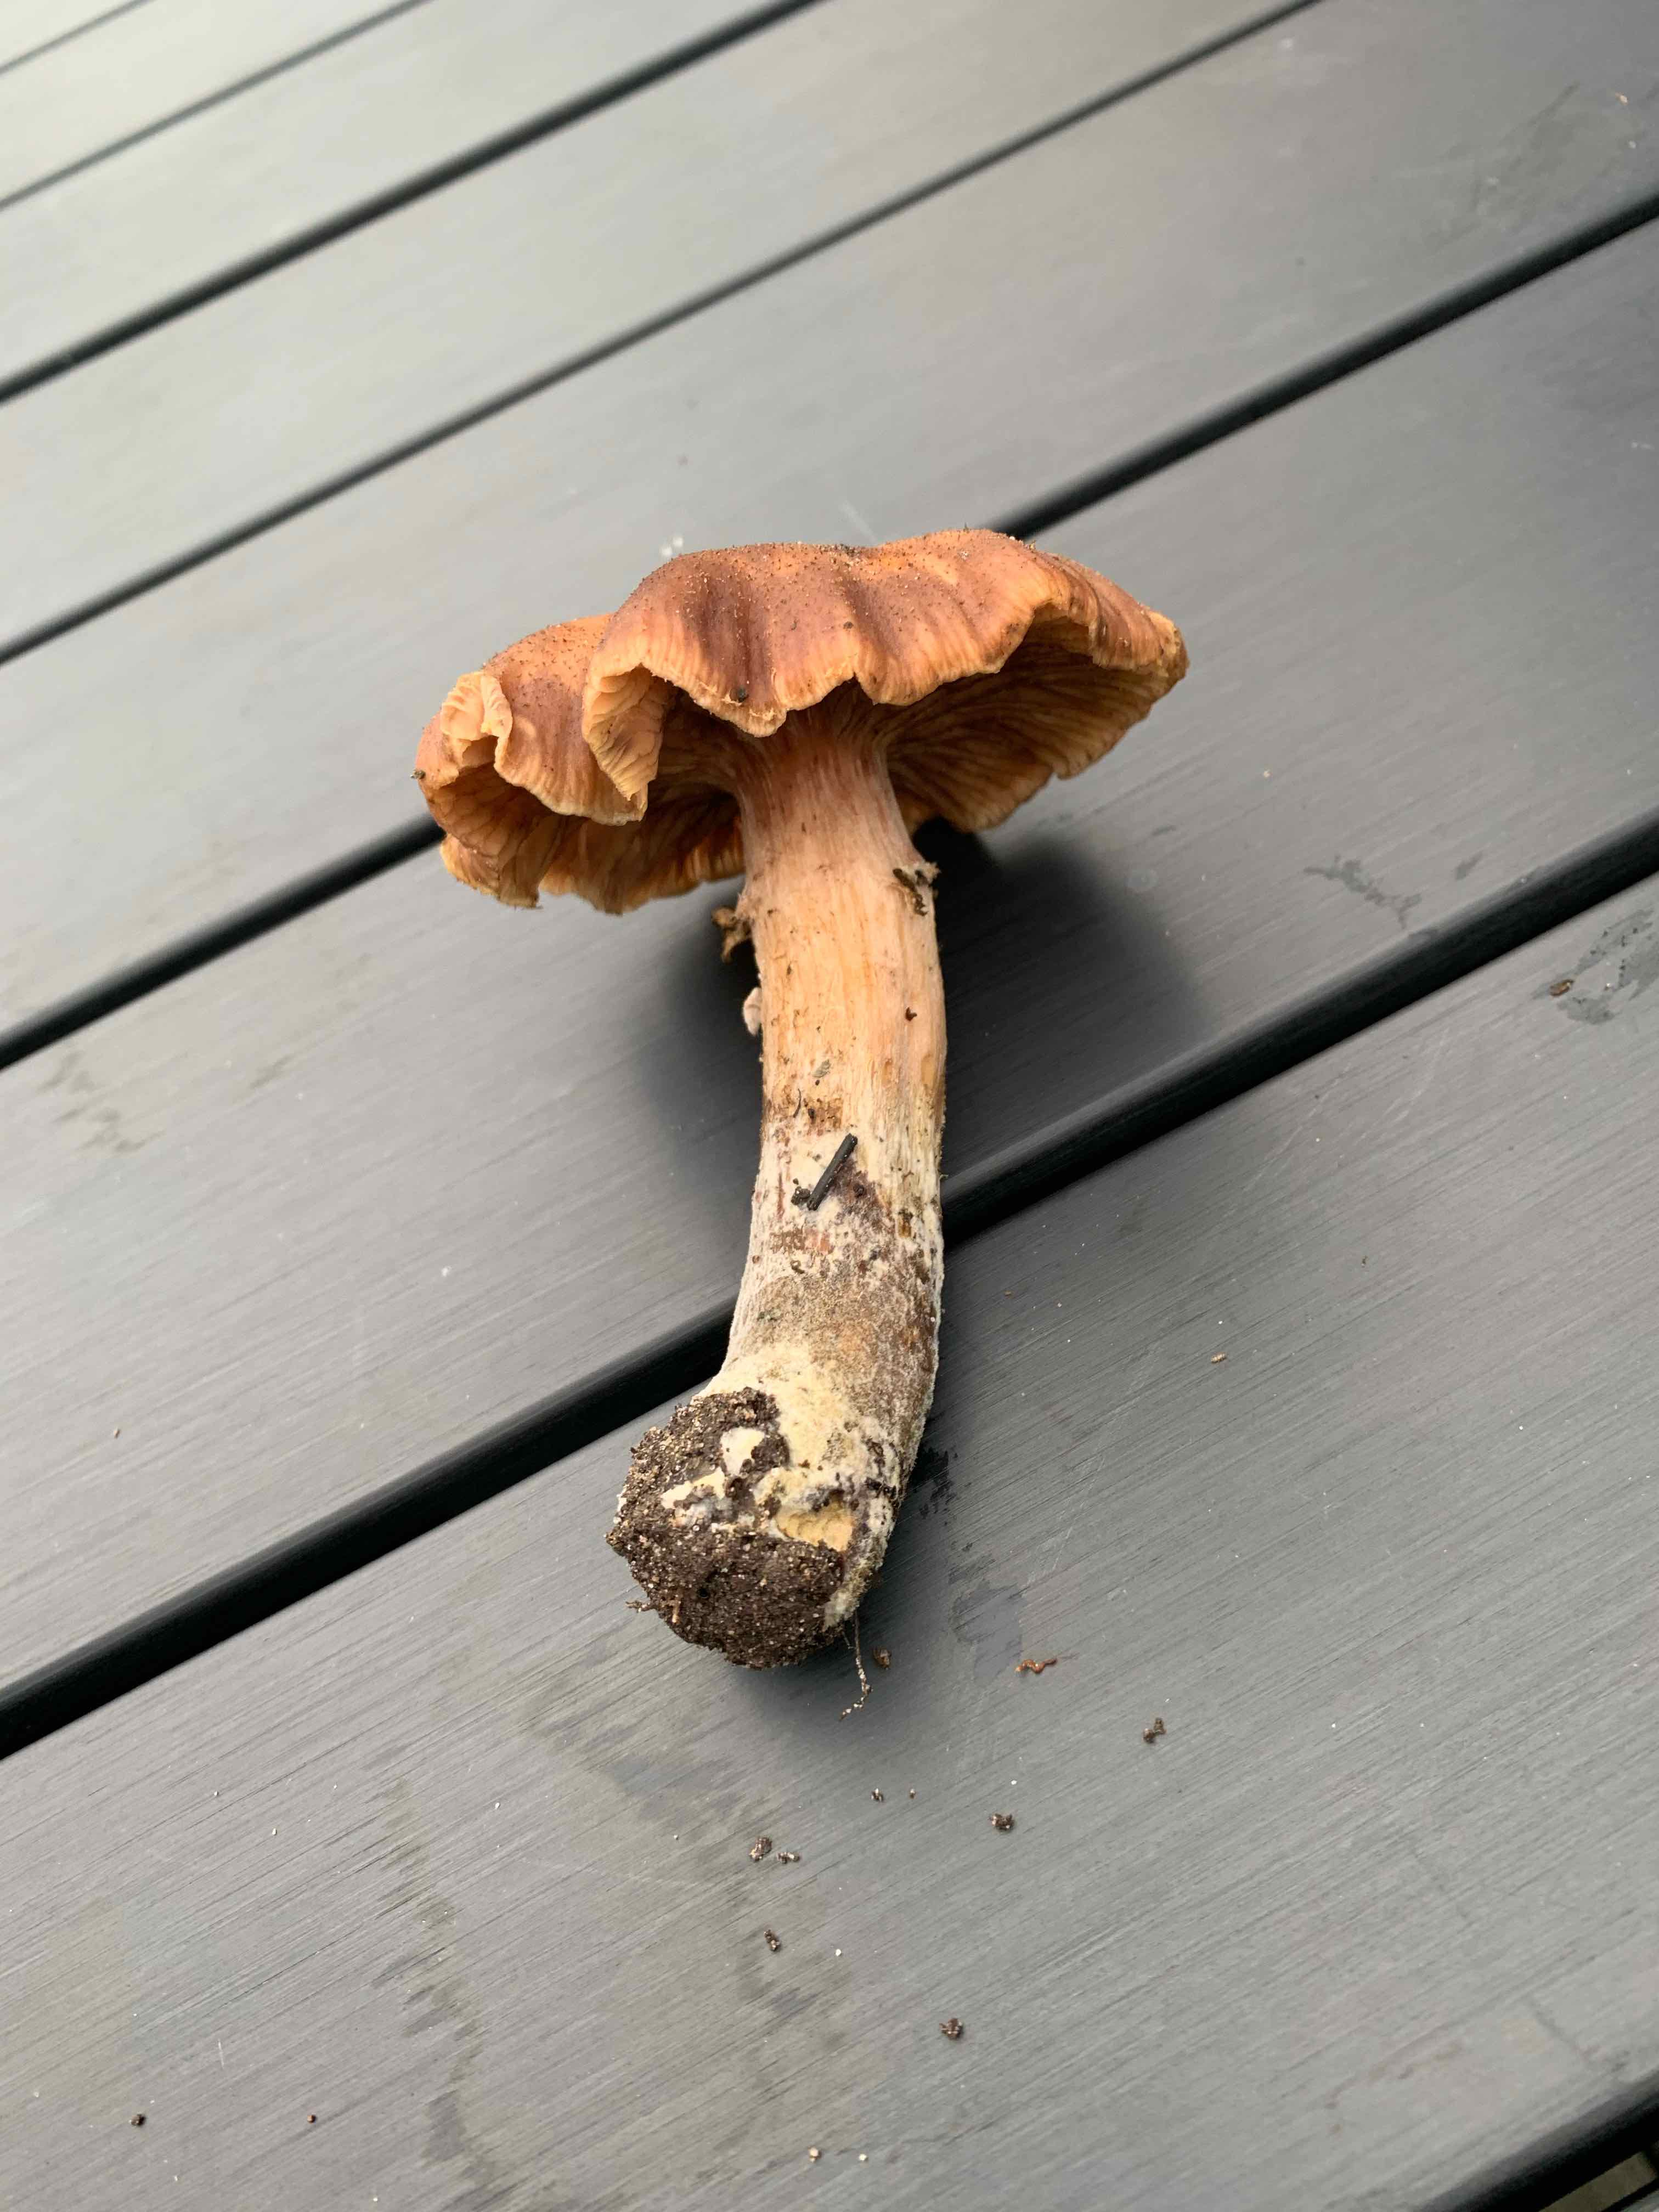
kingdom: Fungi
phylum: Basidiomycota
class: Agaricomycetes
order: Agaricales
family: Physalacriaceae
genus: Armillaria
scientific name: Armillaria
